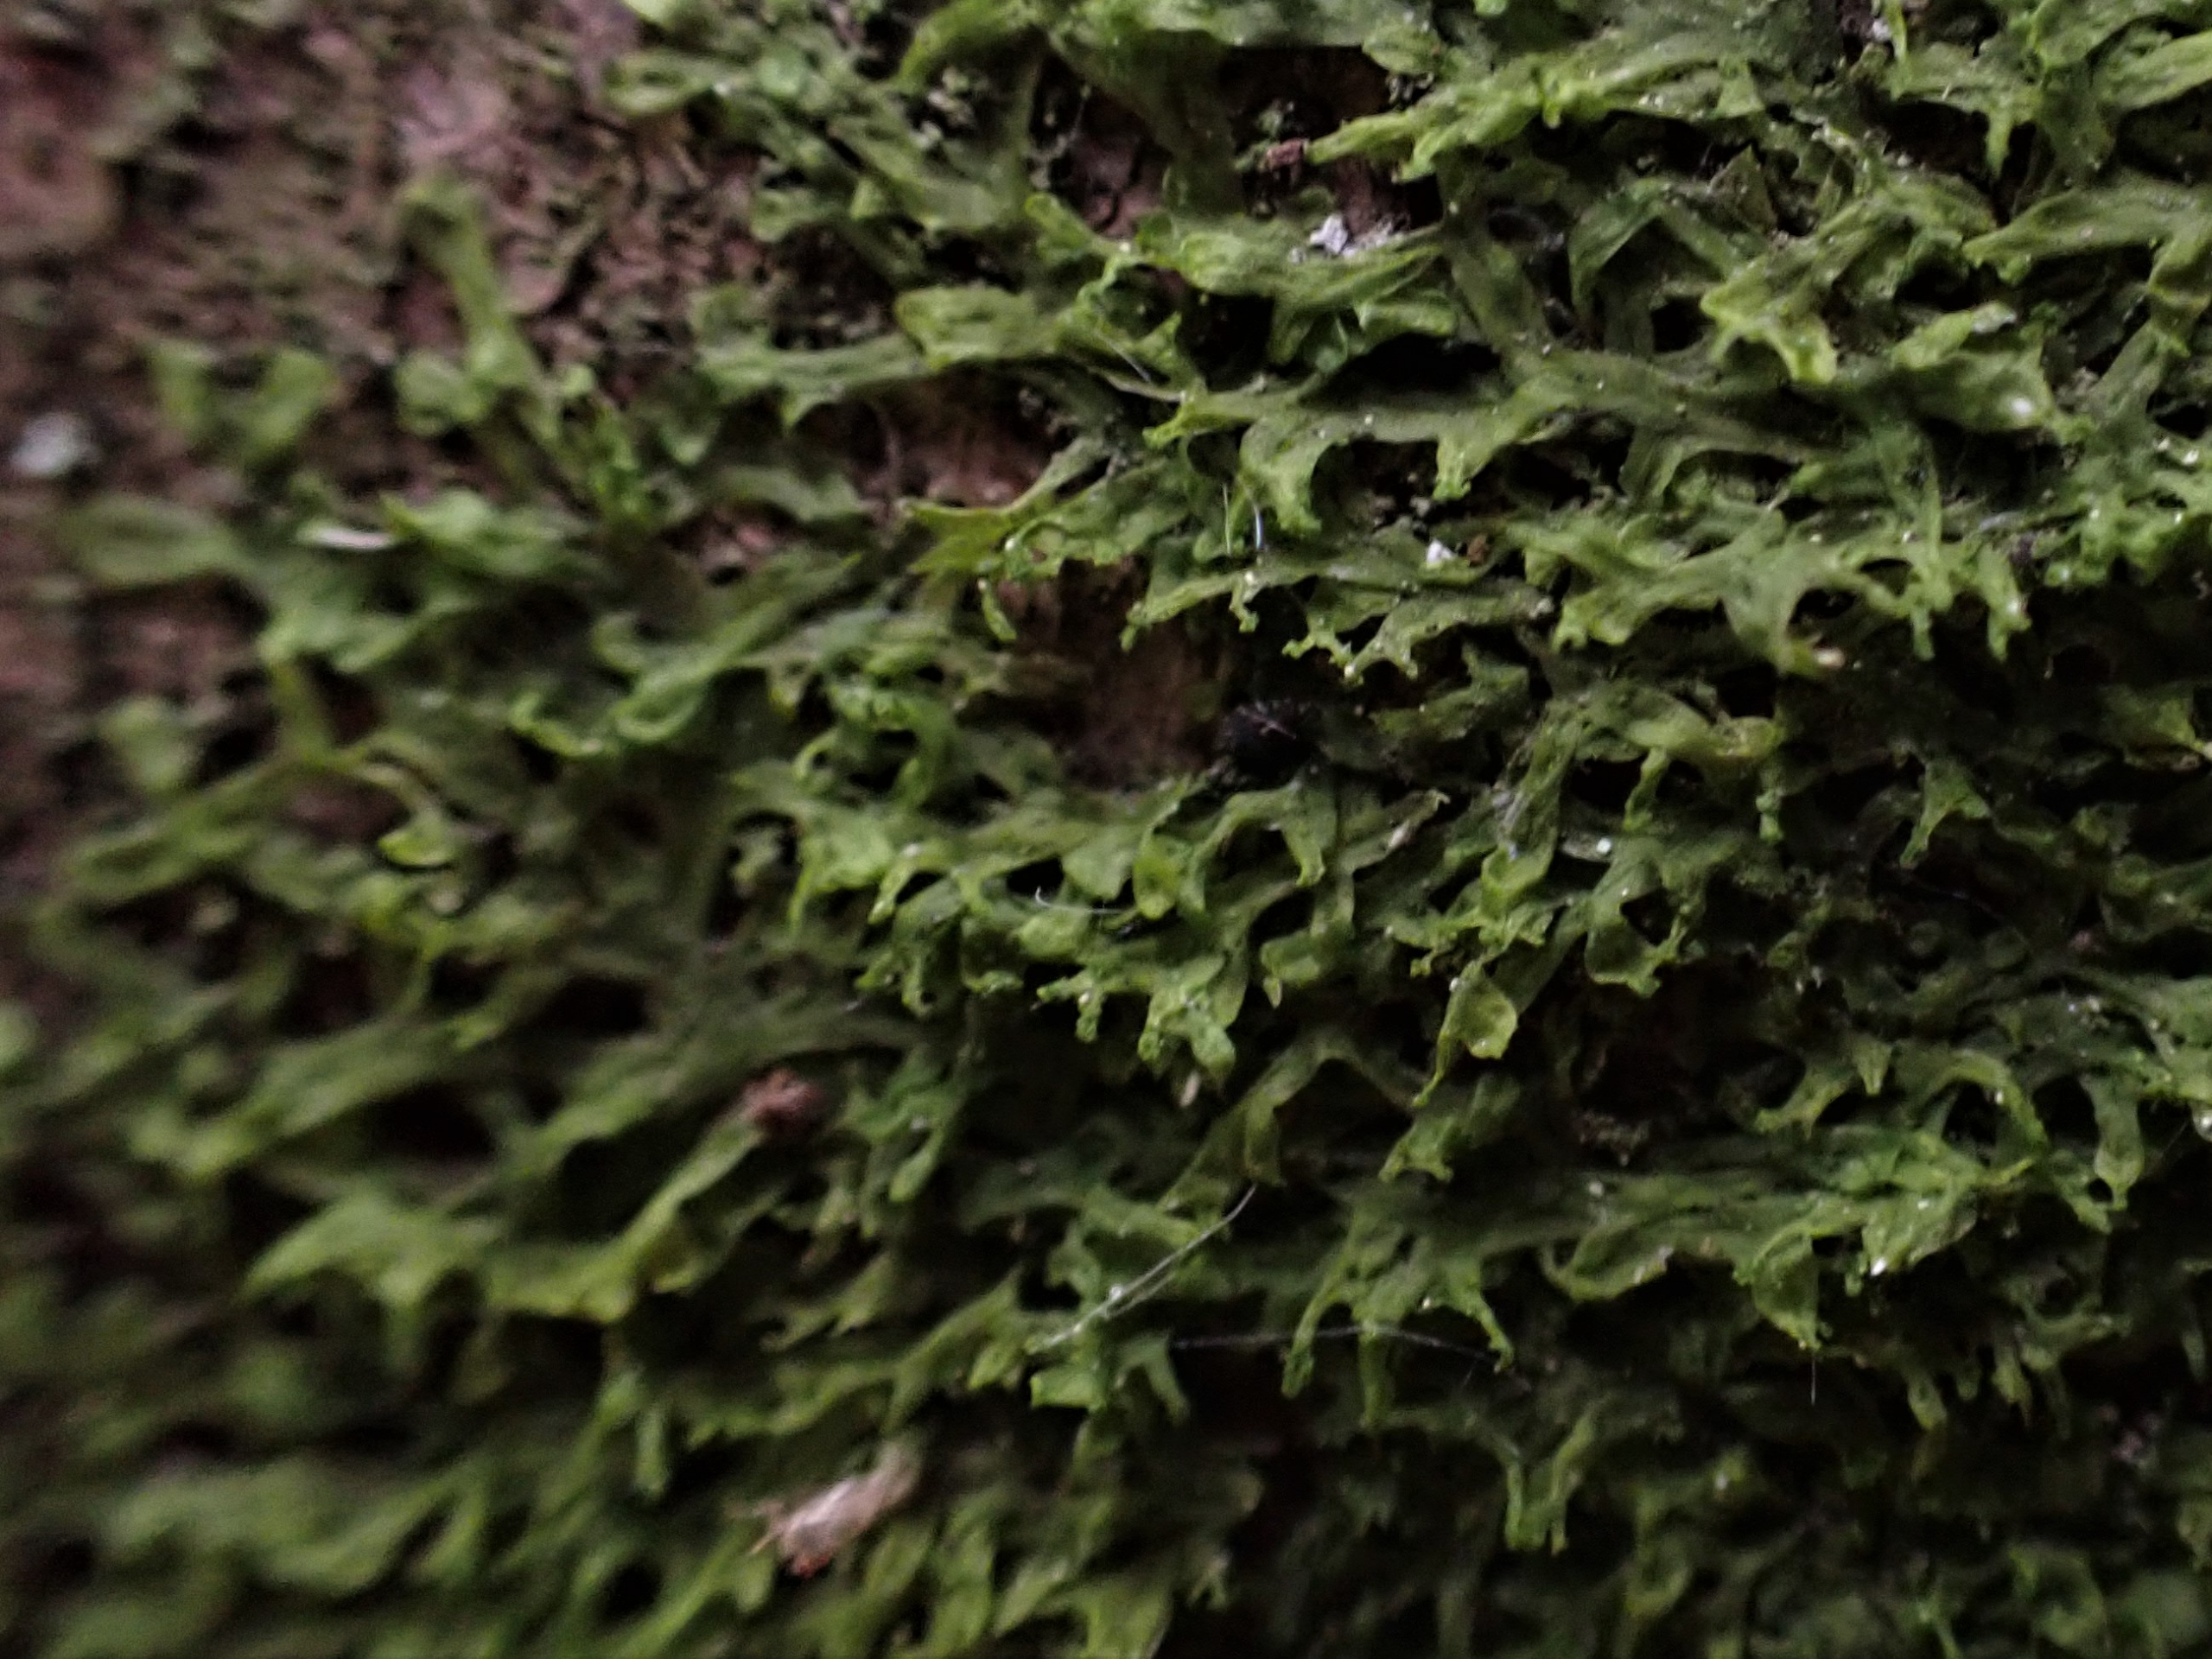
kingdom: Plantae
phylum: Marchantiophyta
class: Jungermanniopsida
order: Metzgeriales
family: Aneuraceae
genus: Riccardia
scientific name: Riccardia palmata
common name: Blågrøn gaffelløv
